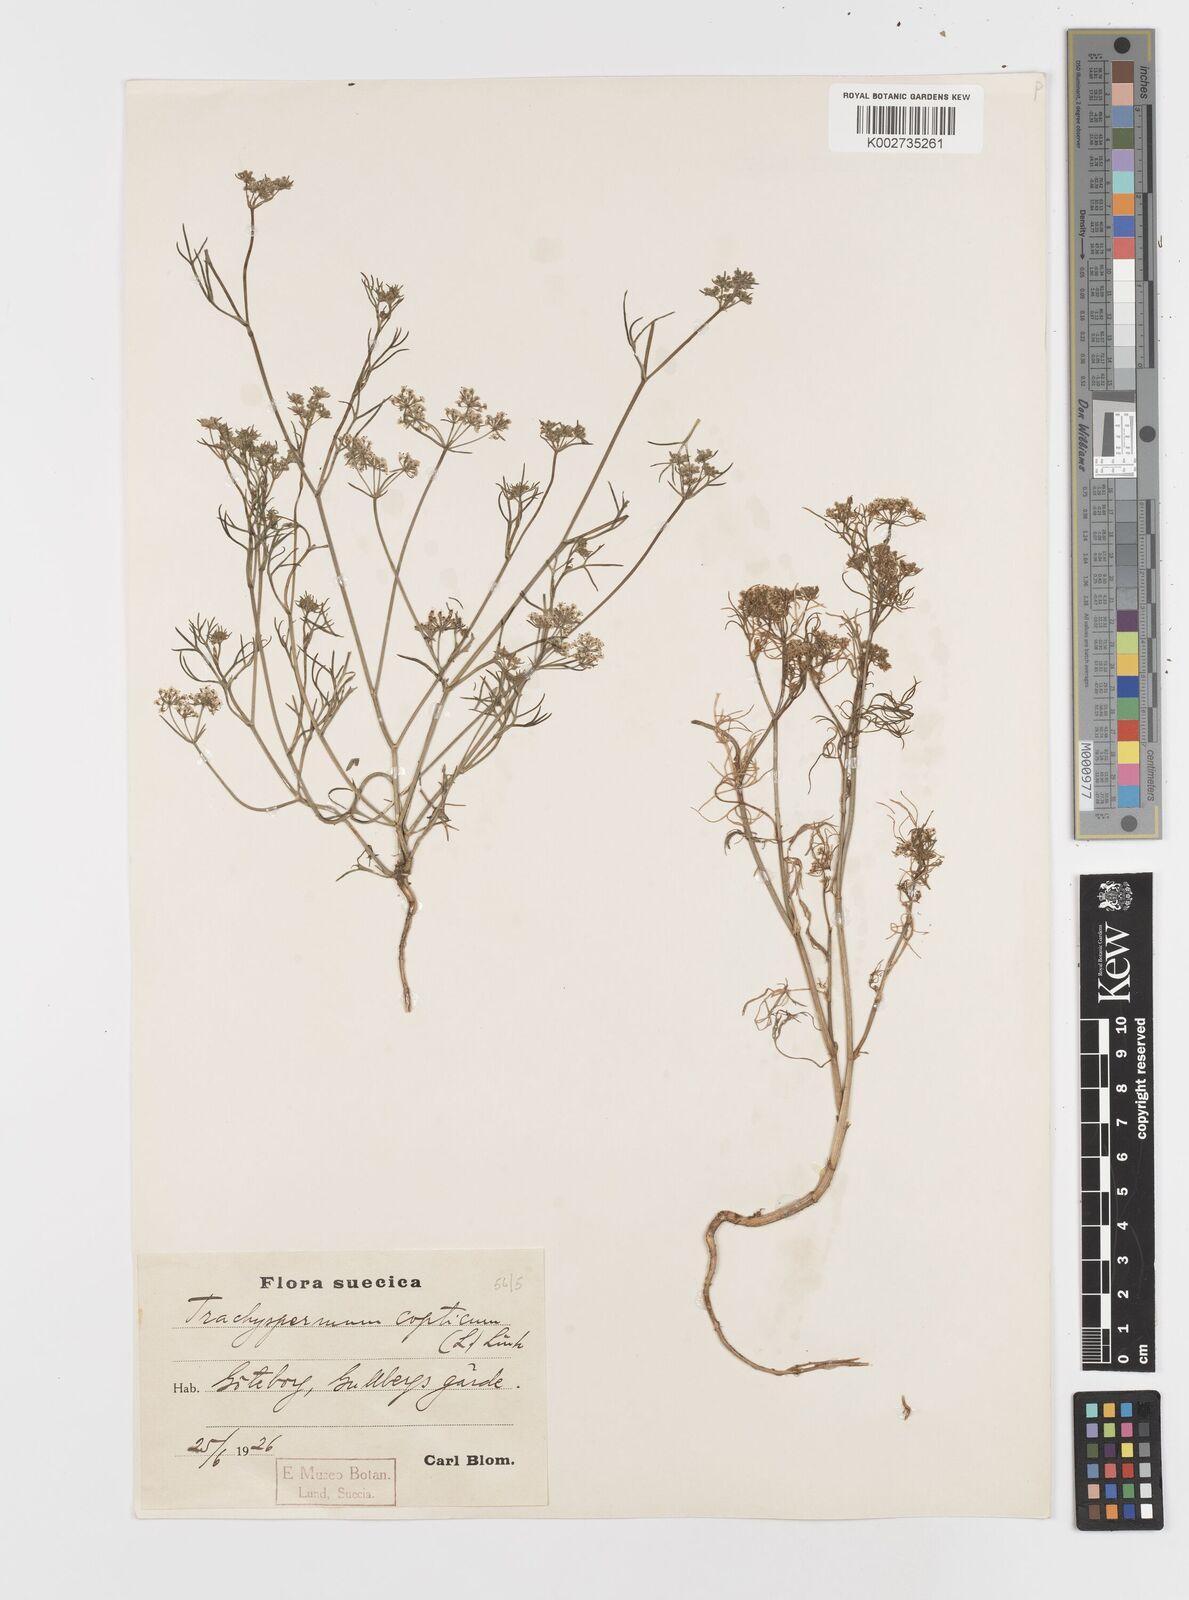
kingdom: Plantae
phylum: Tracheophyta
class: Magnoliopsida
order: Apiales
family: Apiaceae
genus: Trachyspermum
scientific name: Trachyspermum ammi
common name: Ajowan
